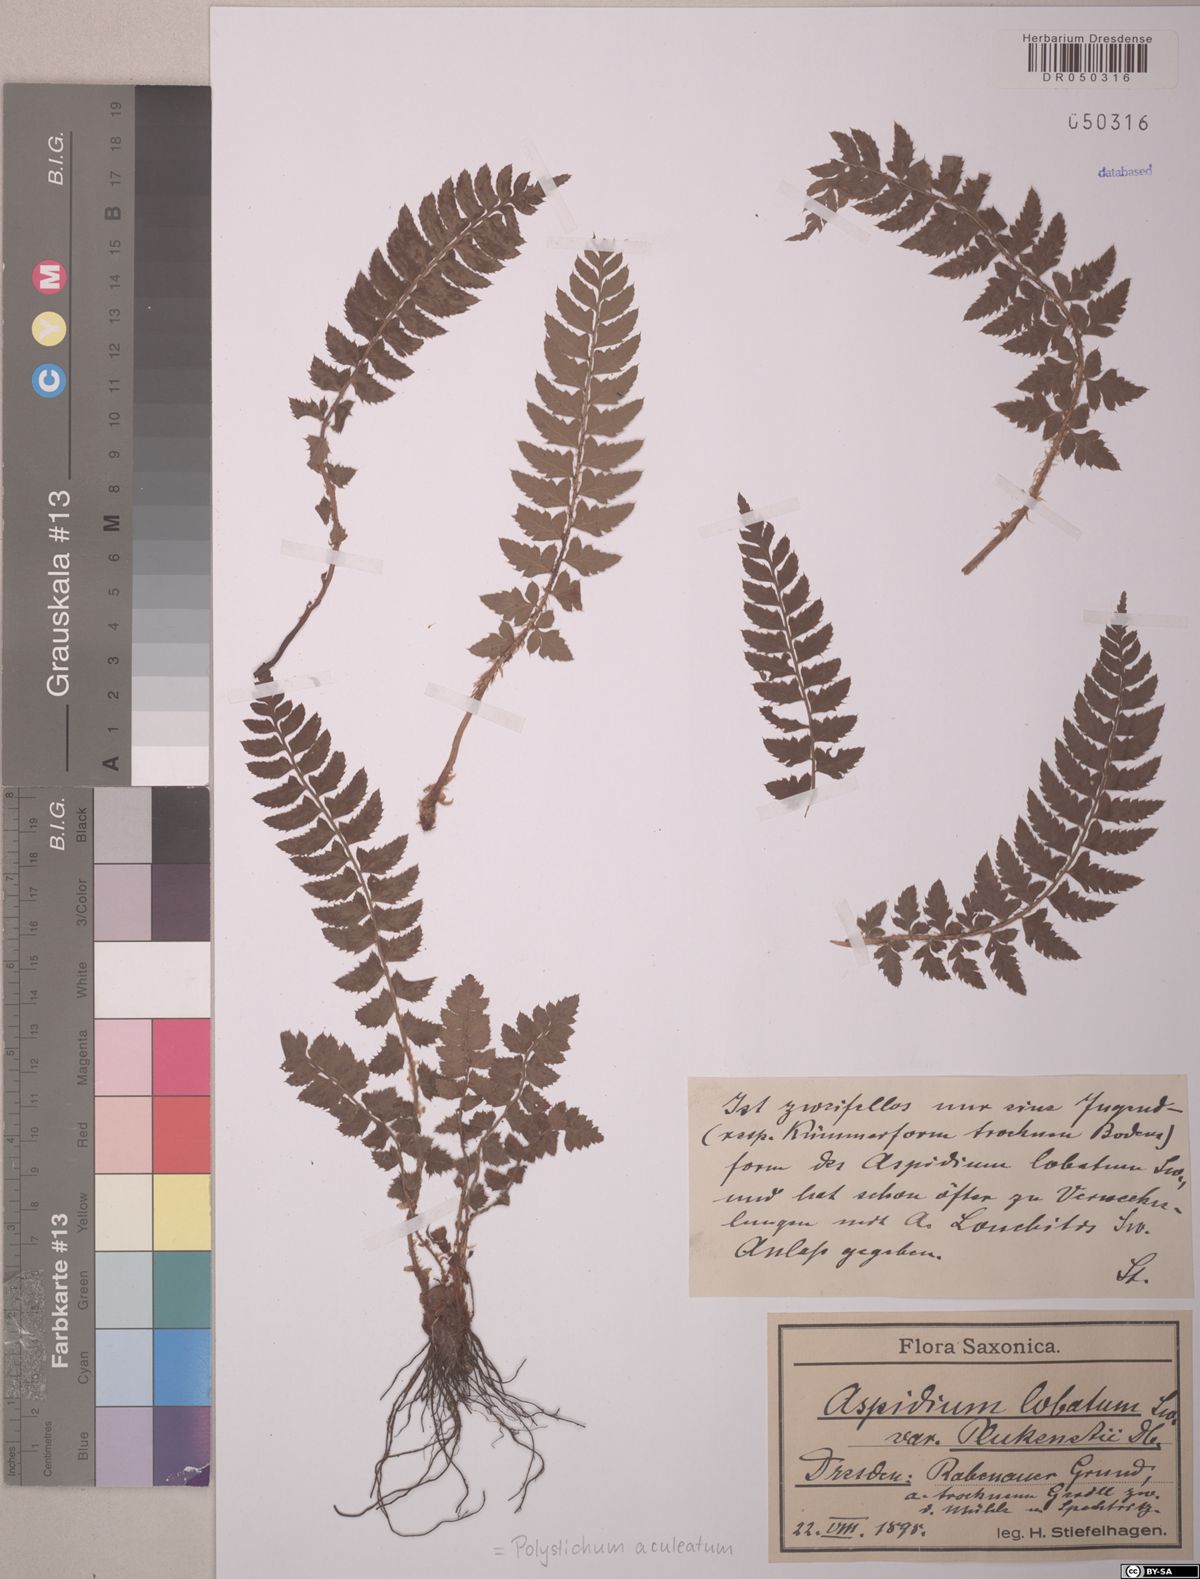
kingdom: Plantae
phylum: Tracheophyta
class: Polypodiopsida
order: Polypodiales
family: Dryopteridaceae
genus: Polystichum
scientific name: Polystichum aculeatum
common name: Hard shield-fern
